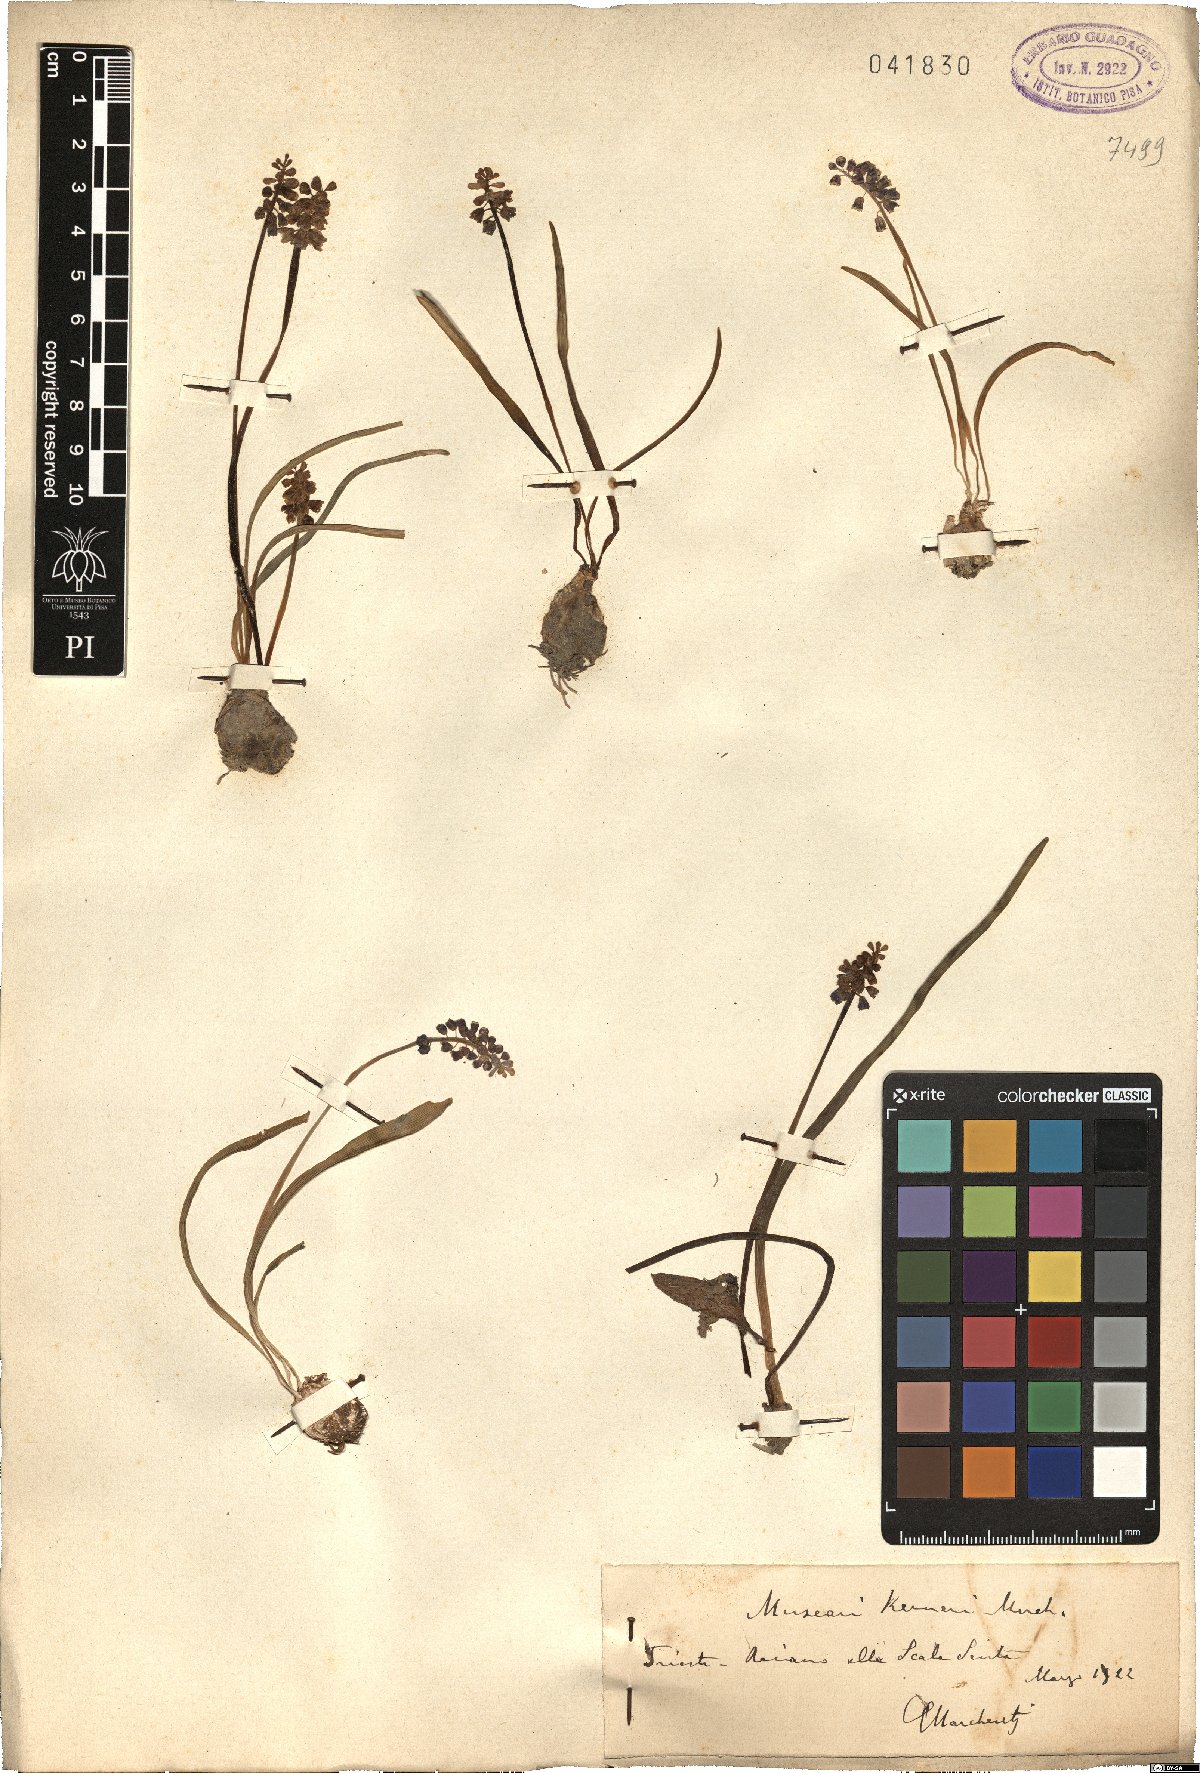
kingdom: Plantae
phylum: Tracheophyta
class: Liliopsida
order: Asparagales
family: Asparagaceae
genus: Muscari
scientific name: Muscari botryoides
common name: Compact grape-hyacinth
